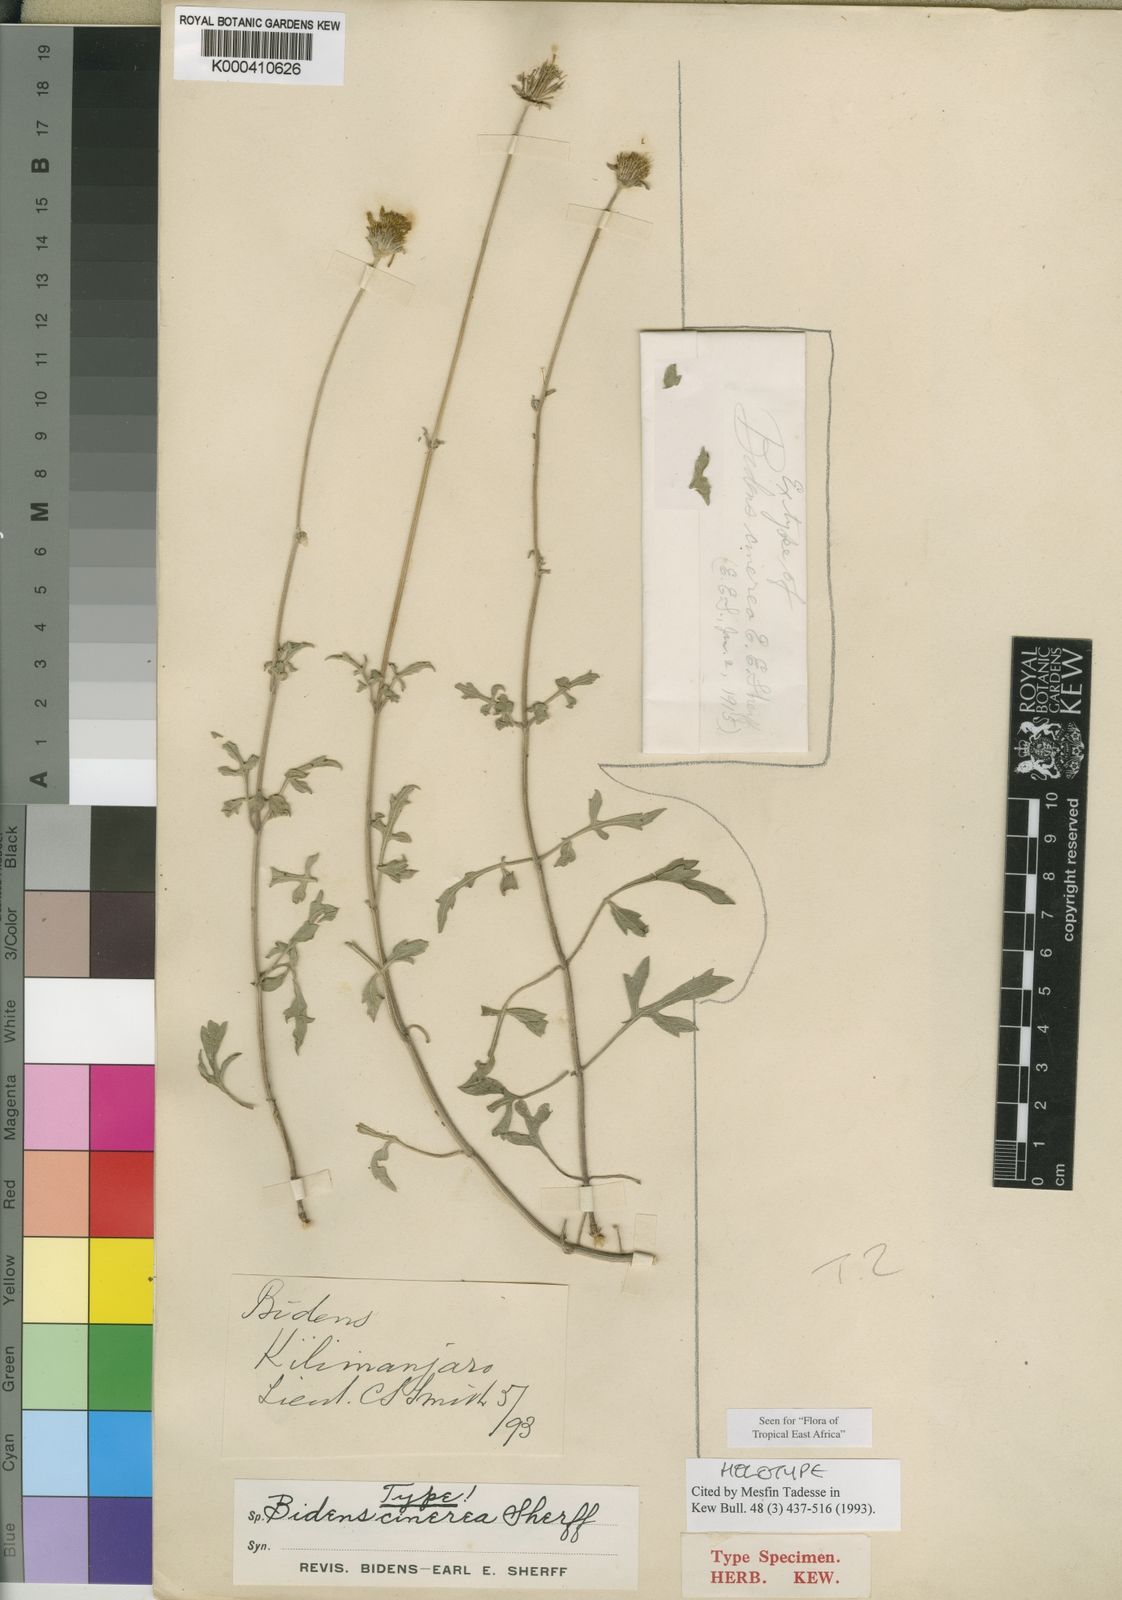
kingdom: Plantae
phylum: Tracheophyta
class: Magnoliopsida
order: Asterales
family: Asteraceae
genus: Bidens
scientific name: Bidens elliotii
